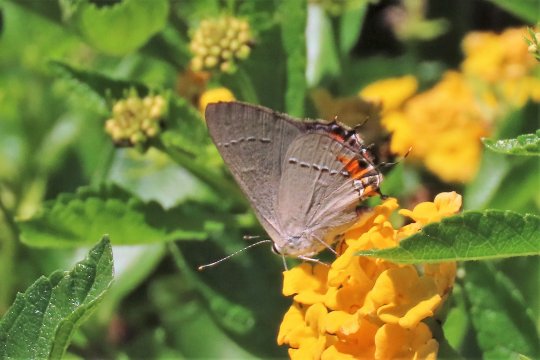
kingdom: Animalia
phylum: Arthropoda
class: Insecta
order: Lepidoptera
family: Lycaenidae
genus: Strymon
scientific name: Strymon melinus
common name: Gray Hairstreak
